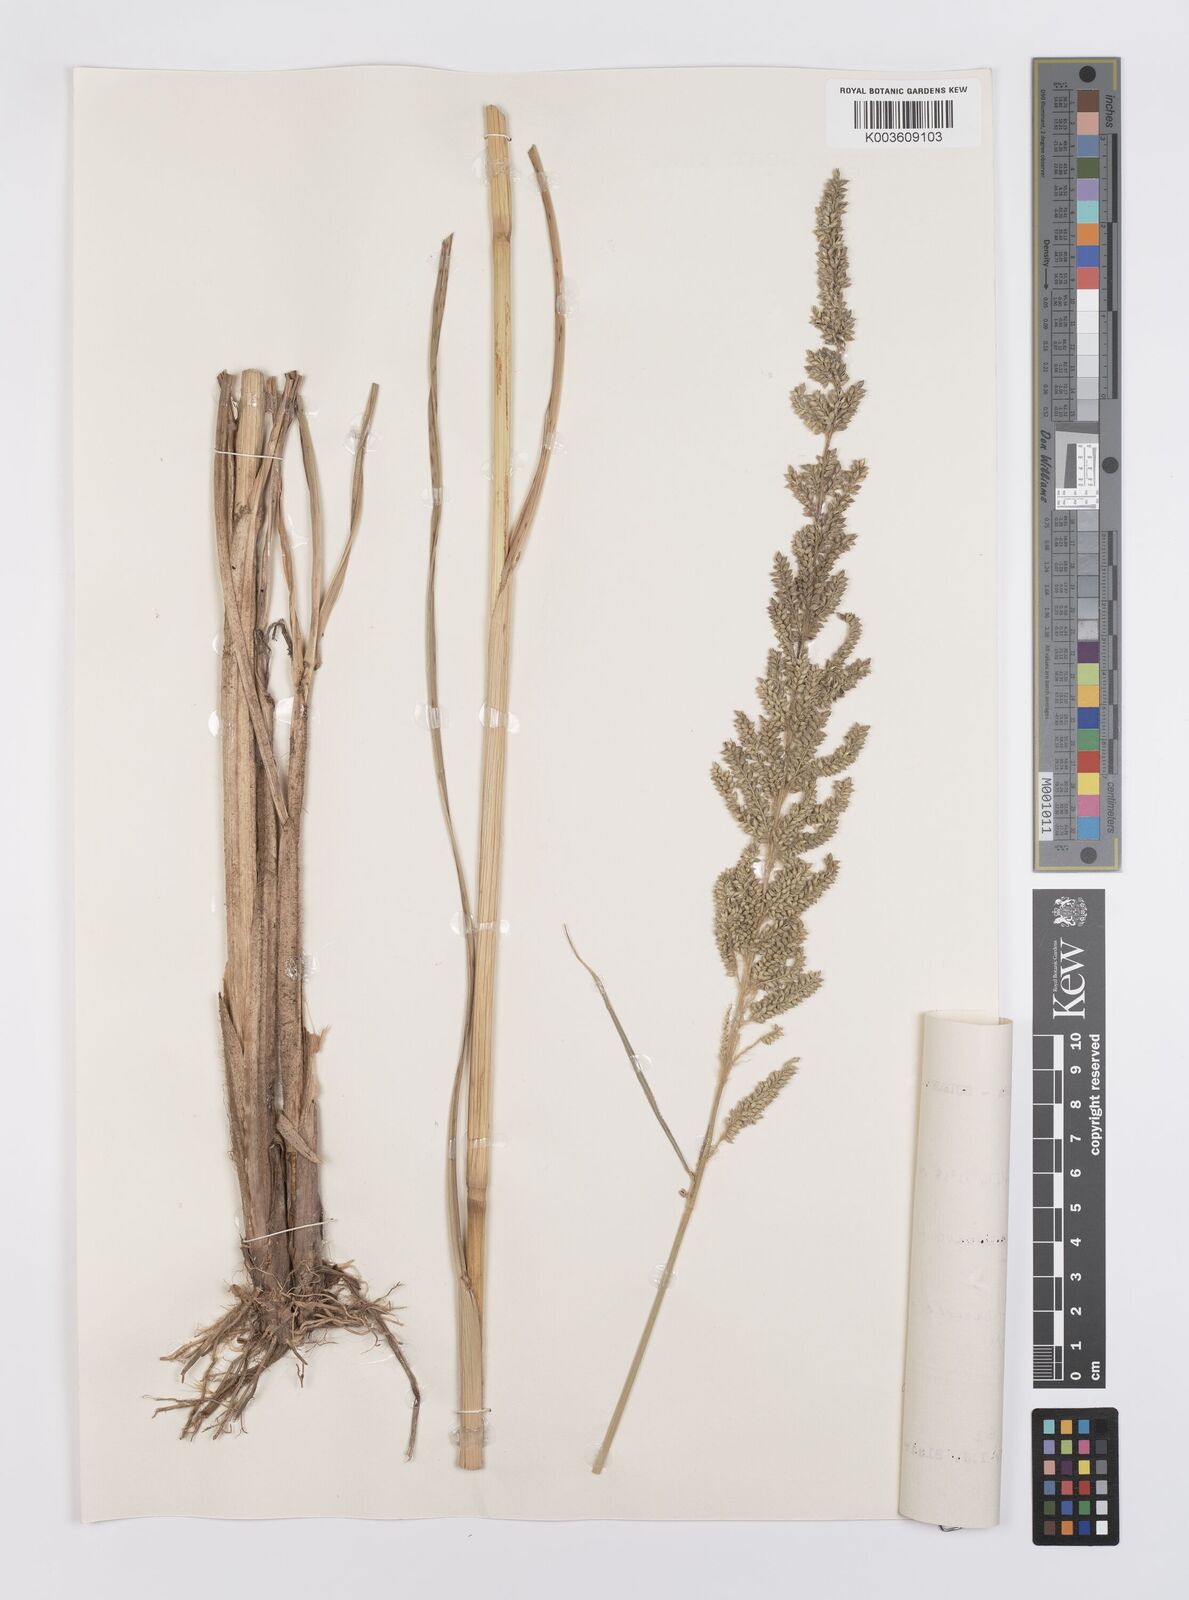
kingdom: Plantae
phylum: Tracheophyta
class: Liliopsida
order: Poales
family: Poaceae
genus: Echinochloa
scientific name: Echinochloa pyramidalis
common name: Antelope grass
